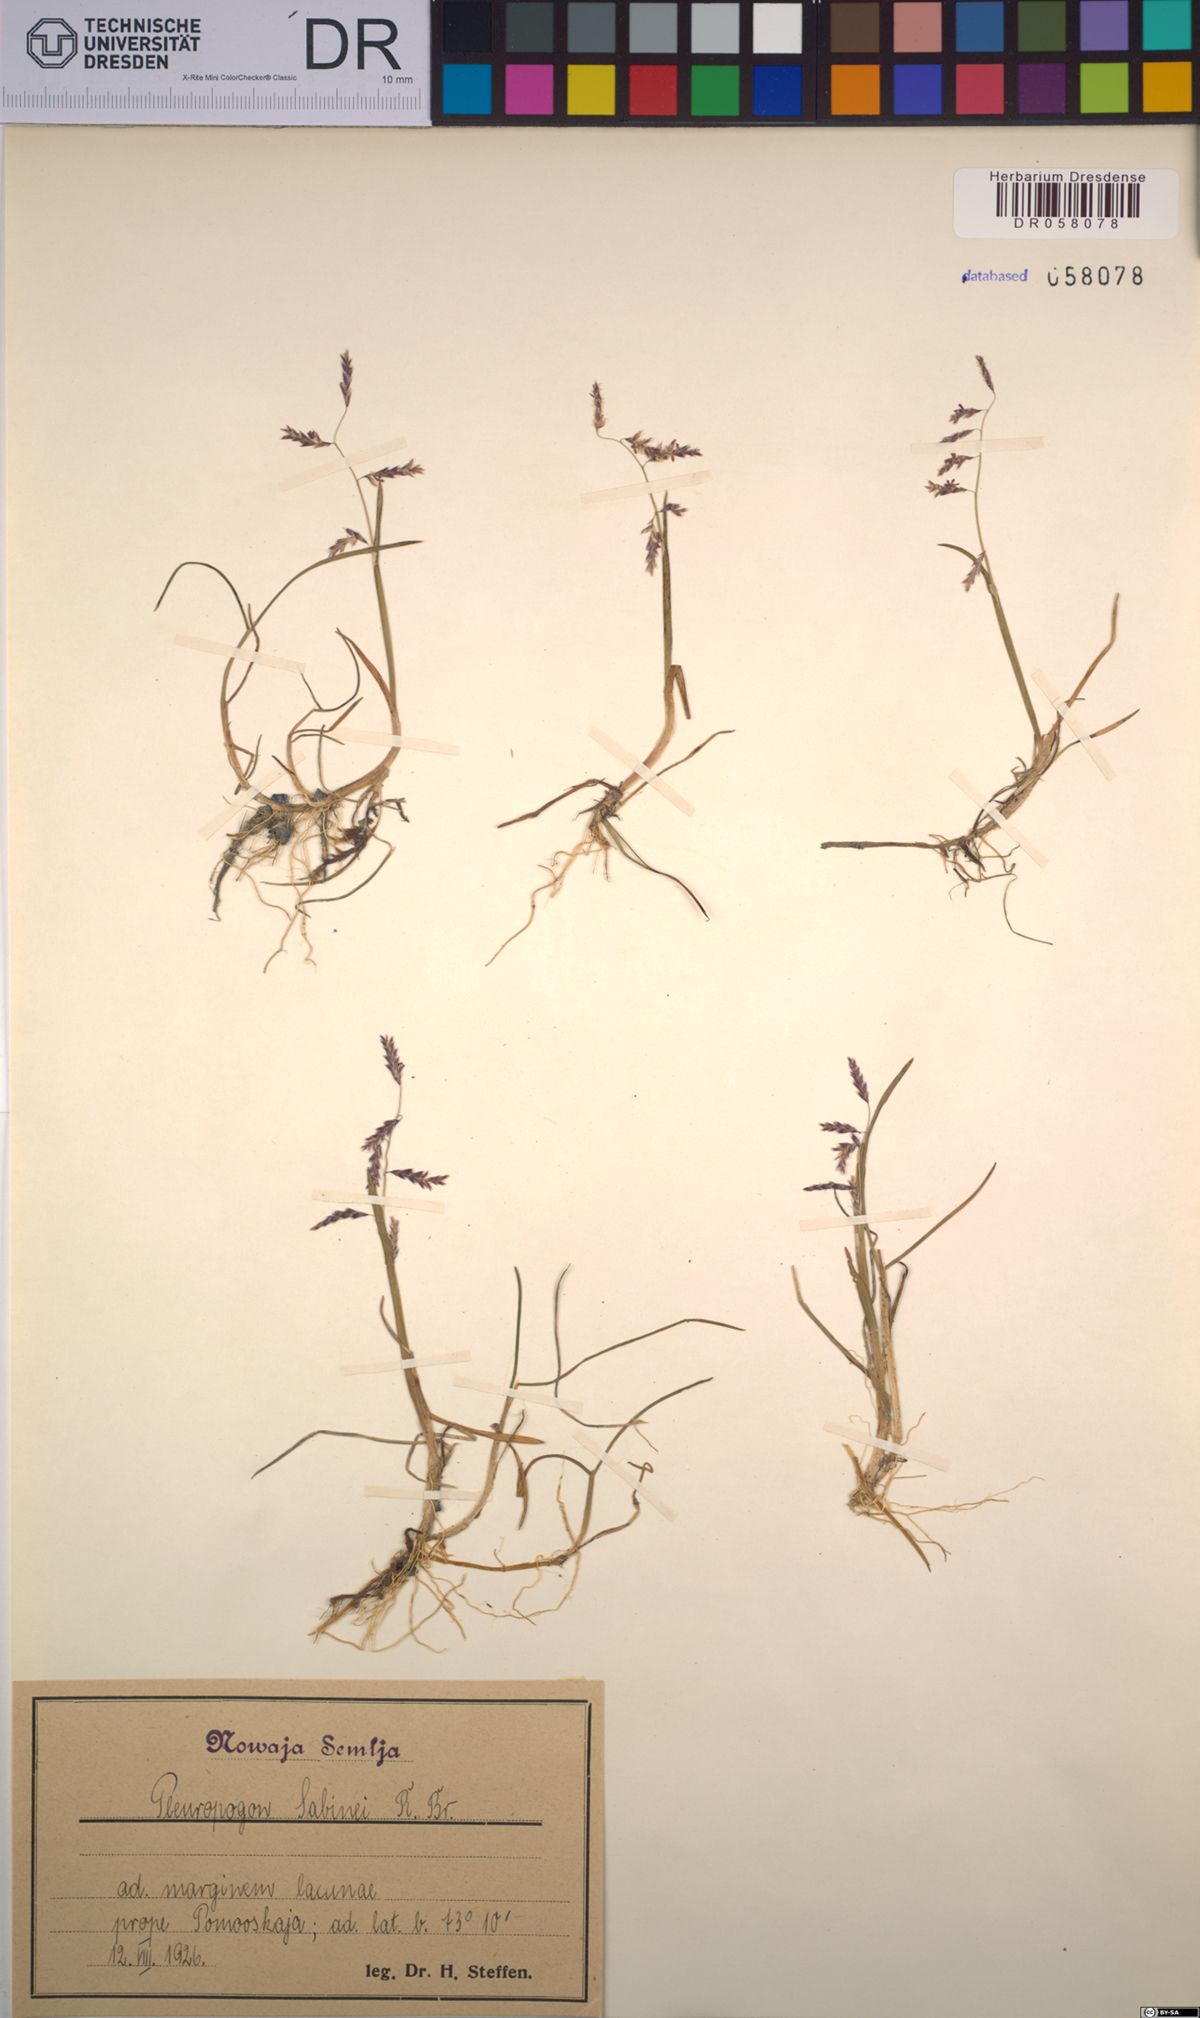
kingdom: Plantae
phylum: Tracheophyta
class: Liliopsida
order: Poales
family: Poaceae
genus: Pleuropogon
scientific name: Pleuropogon sabinei
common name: Sabine's false semaphoregrass
